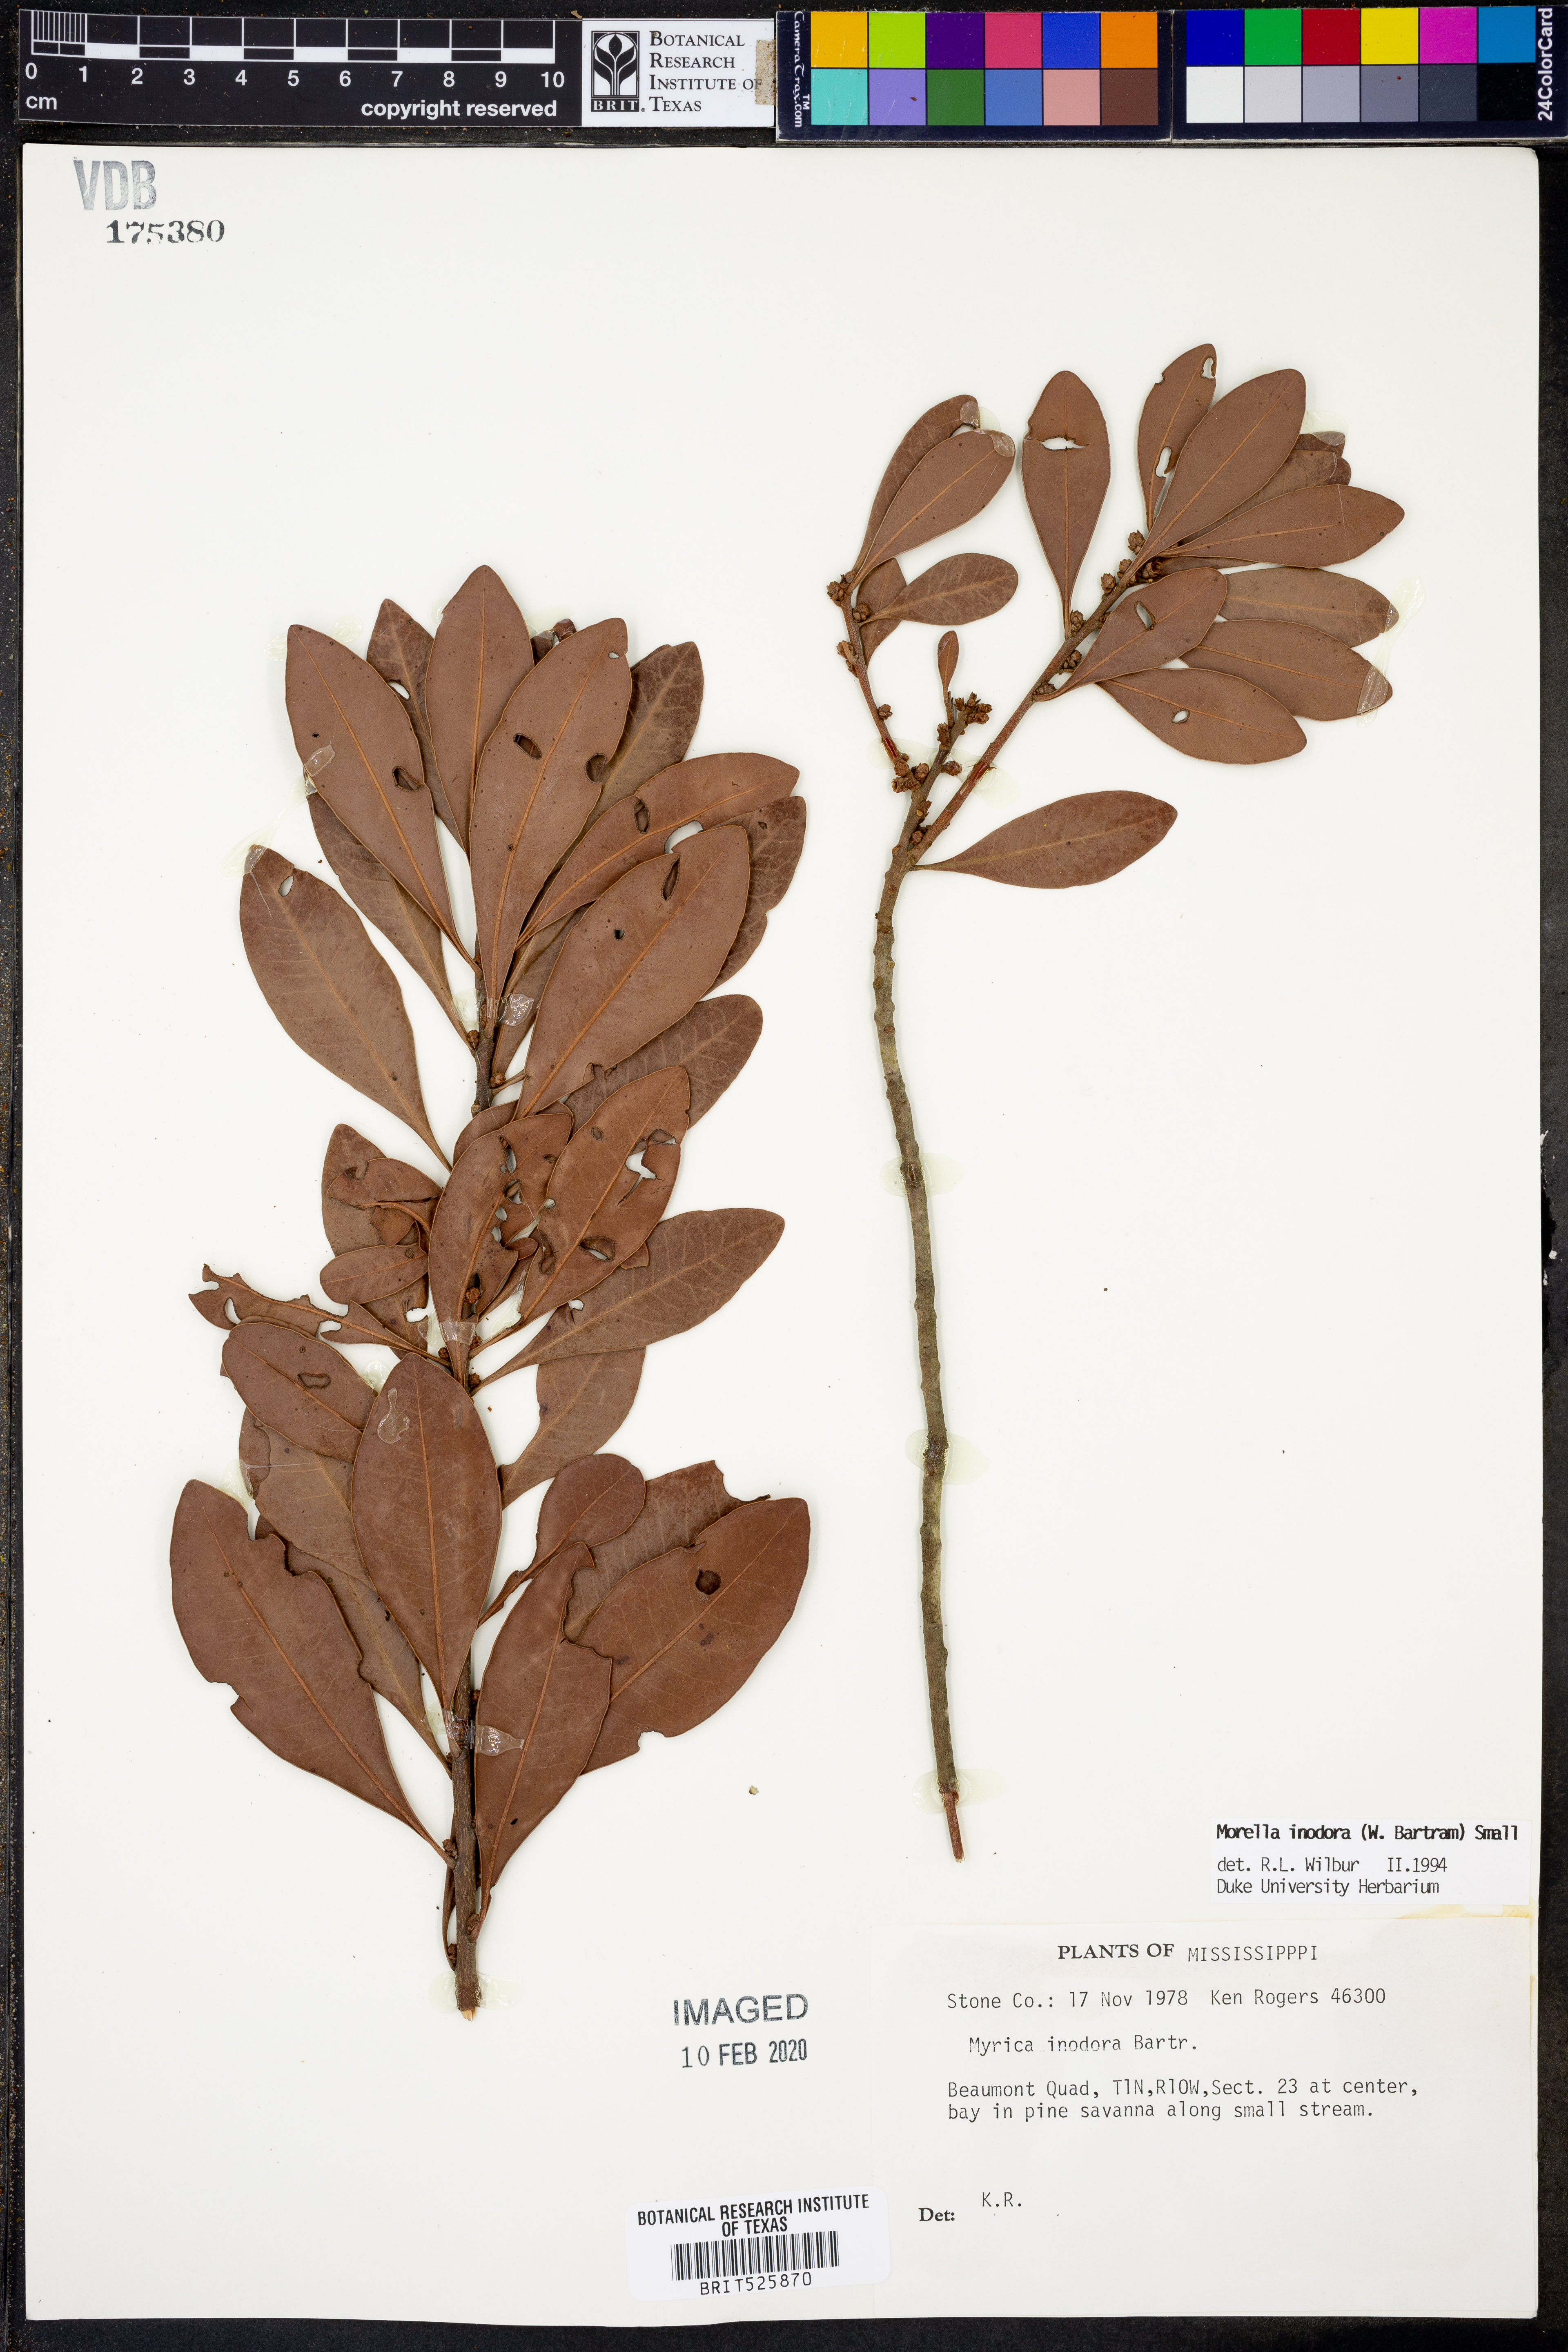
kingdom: Plantae
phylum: Tracheophyta
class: Magnoliopsida
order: Fagales
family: Myricaceae
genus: Morella
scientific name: Morella inodora
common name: Candle-berry
